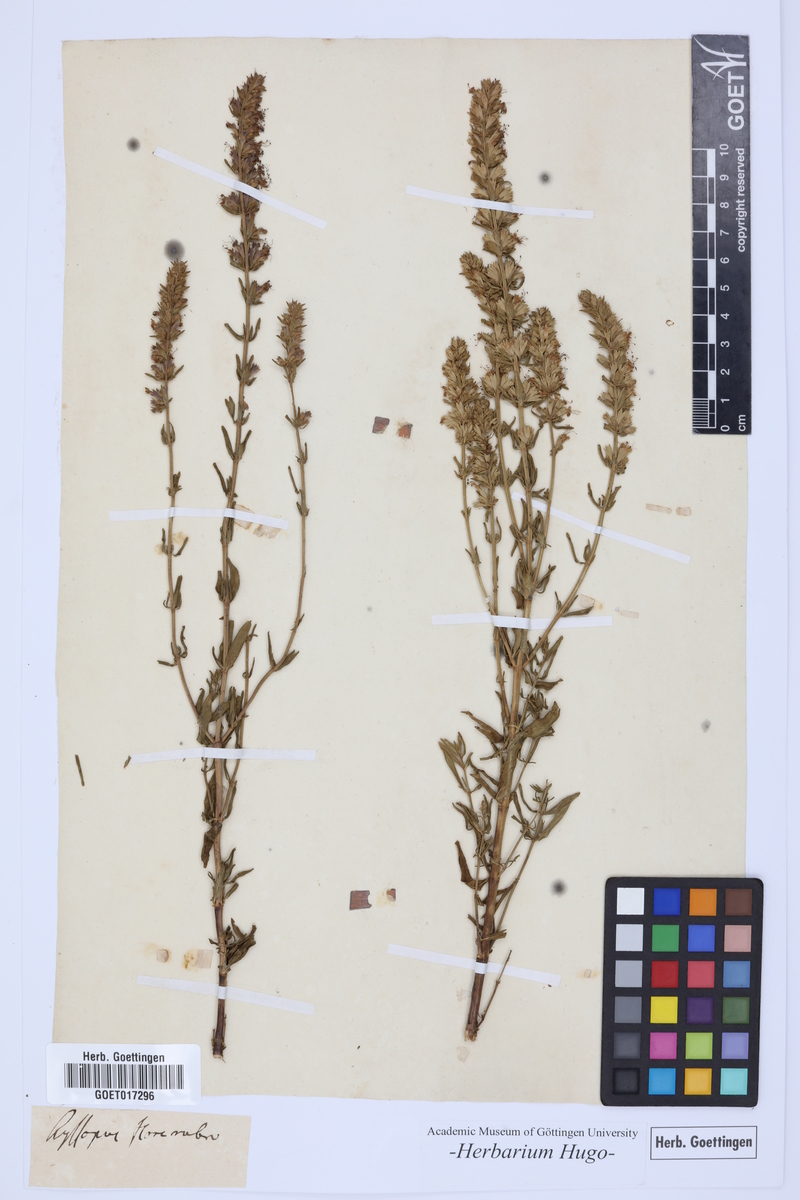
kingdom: Plantae
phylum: Tracheophyta
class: Magnoliopsida
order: Lamiales
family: Lamiaceae
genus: Hyssopus
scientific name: Hyssopus officinalis
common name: Hyssop
